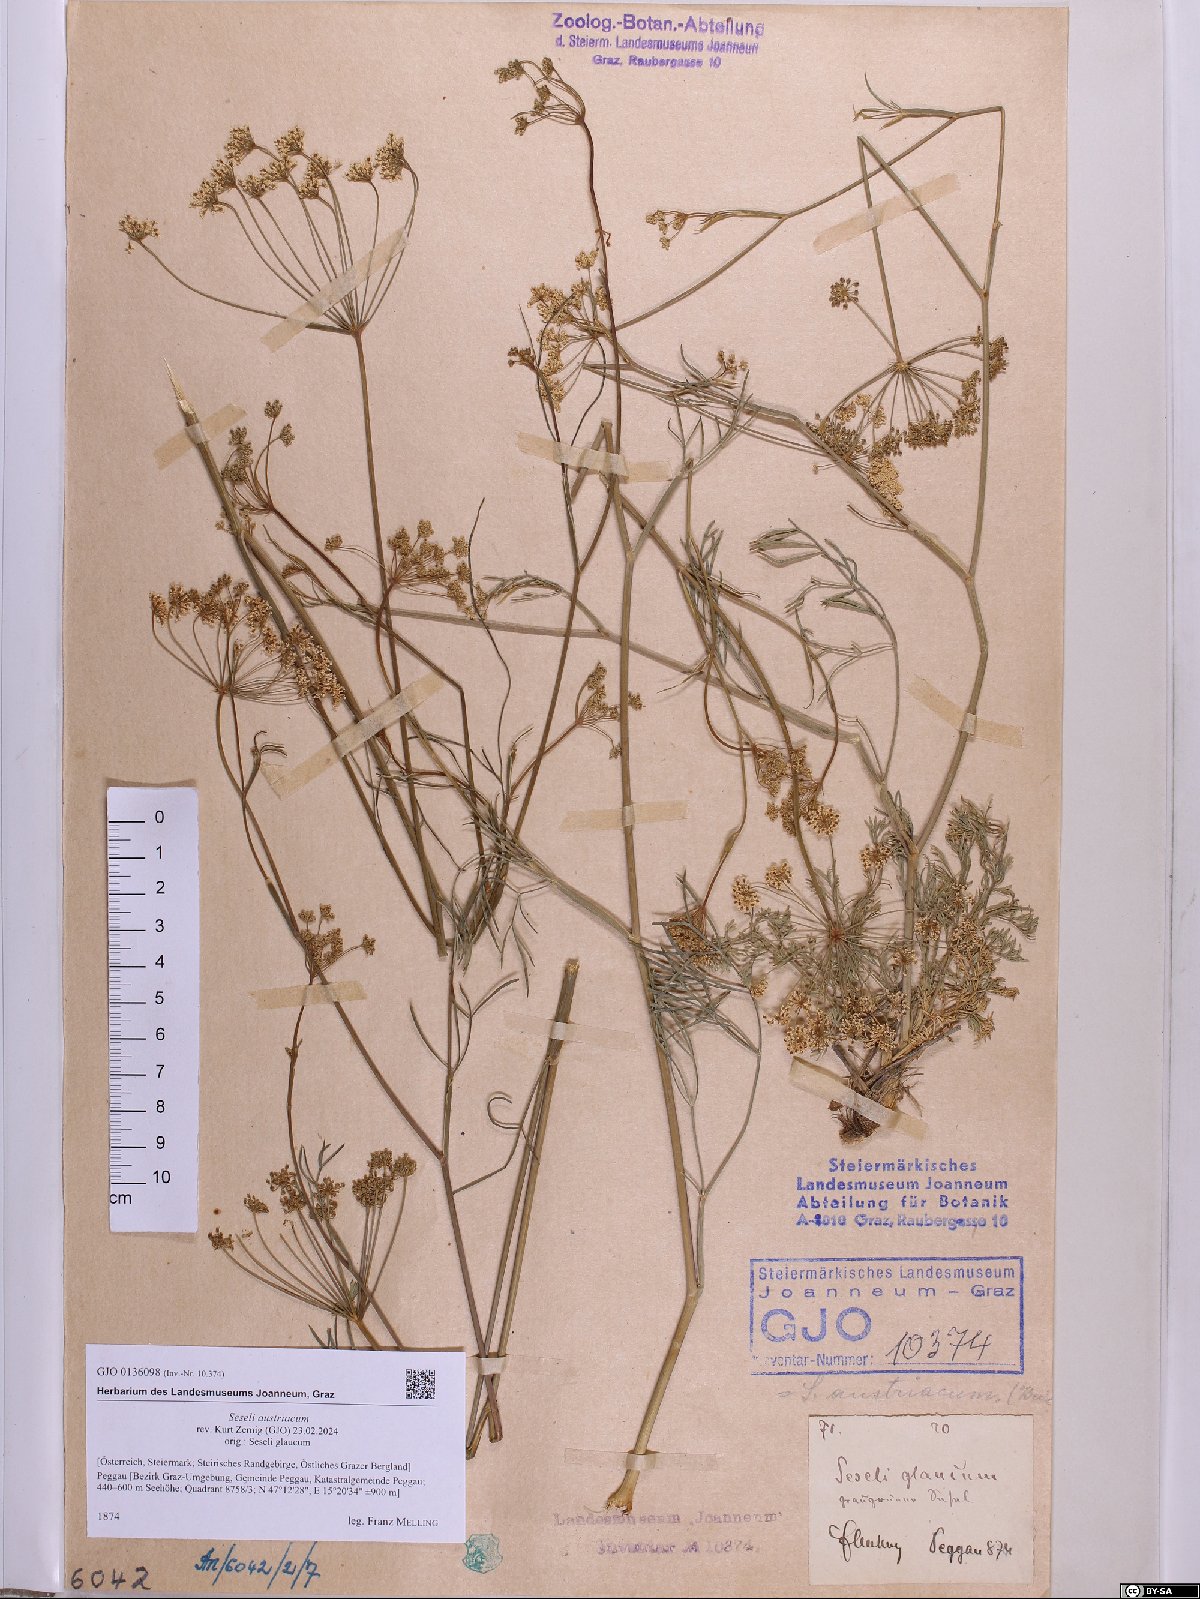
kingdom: Plantae
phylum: Tracheophyta
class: Magnoliopsida
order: Apiales
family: Apiaceae
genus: Seseli
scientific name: Seseli austriacum
